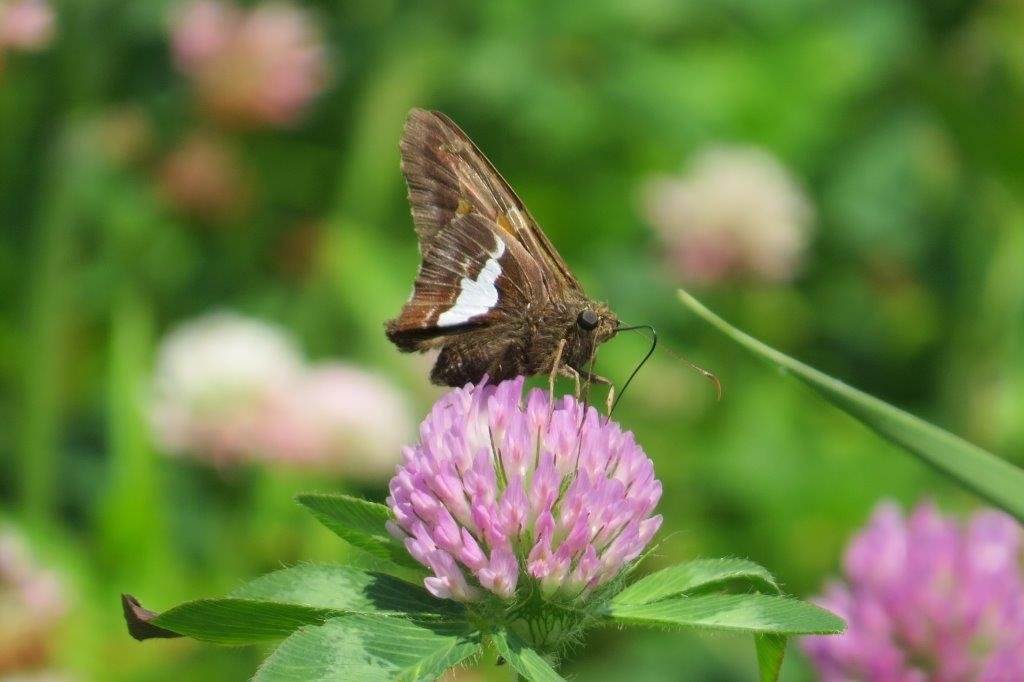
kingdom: Animalia
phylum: Arthropoda
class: Insecta
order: Lepidoptera
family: Hesperiidae
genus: Epargyreus
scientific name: Epargyreus clarus
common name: Silver-spotted Skipper
